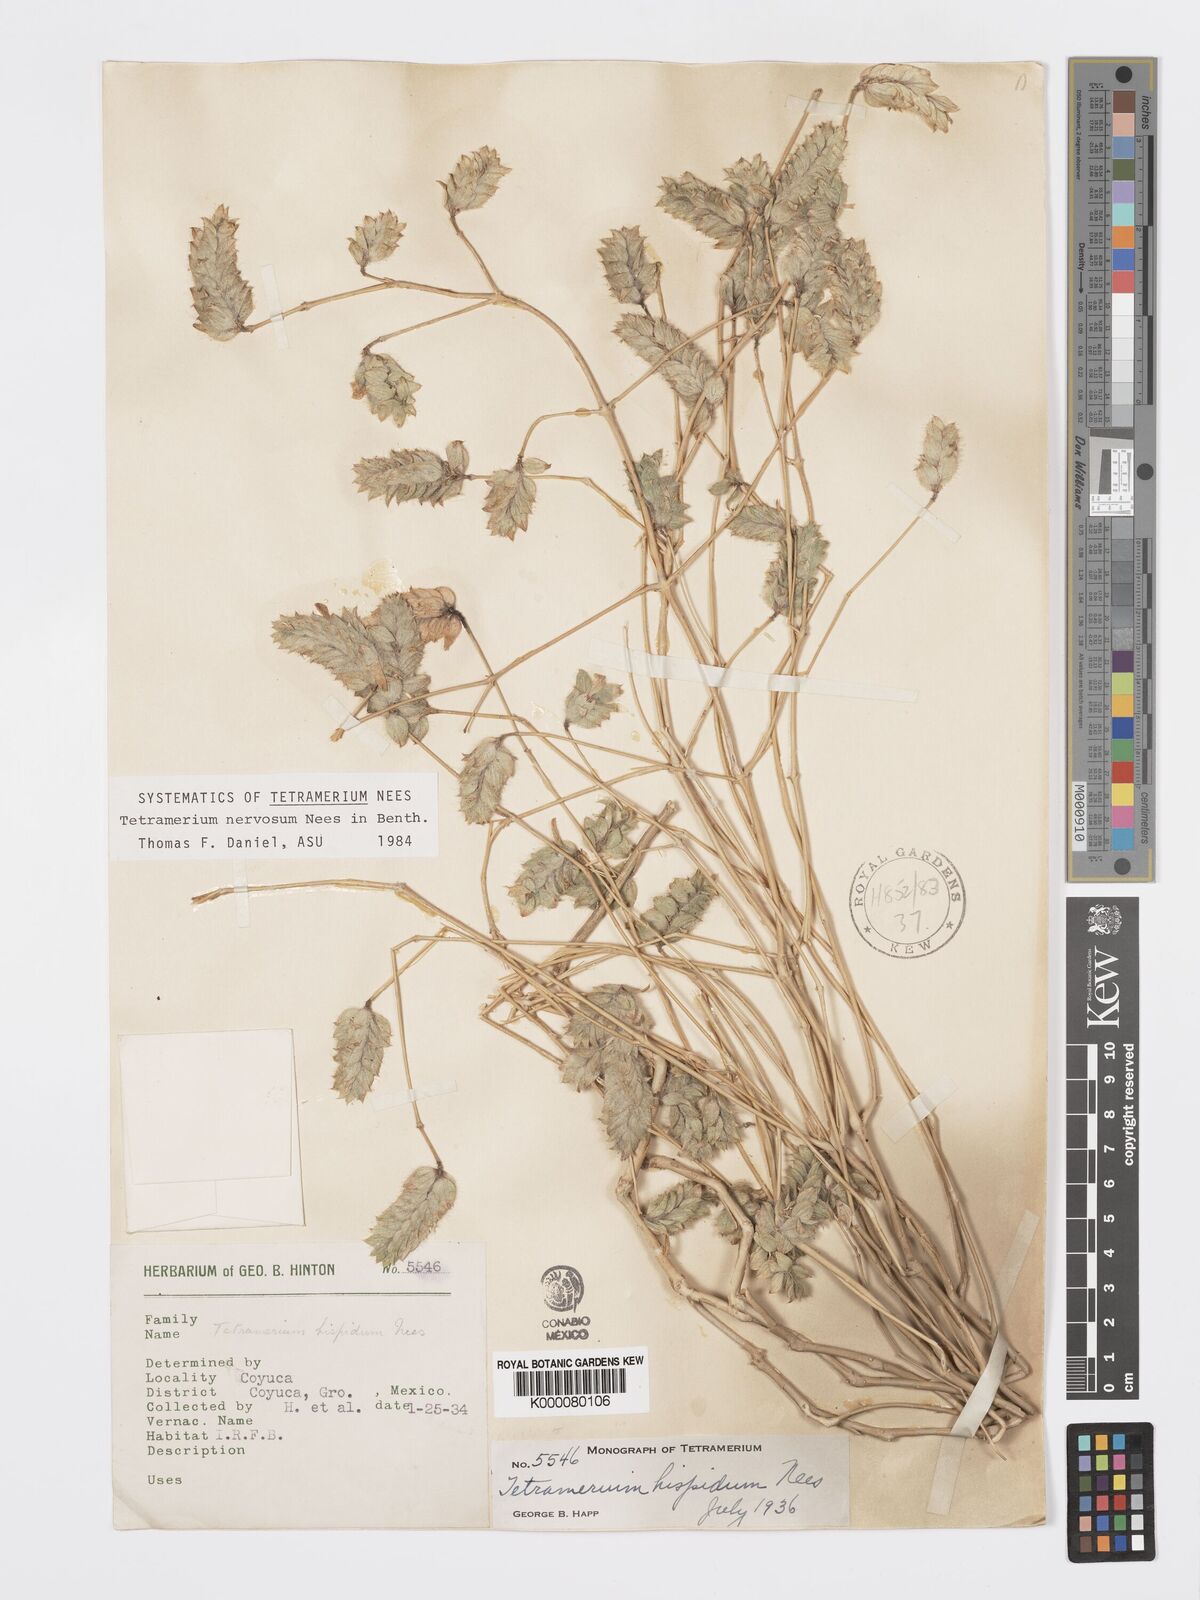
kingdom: Plantae
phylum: Tracheophyta
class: Magnoliopsida
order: Lamiales
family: Acanthaceae
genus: Tetramerium
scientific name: Tetramerium nervosum
